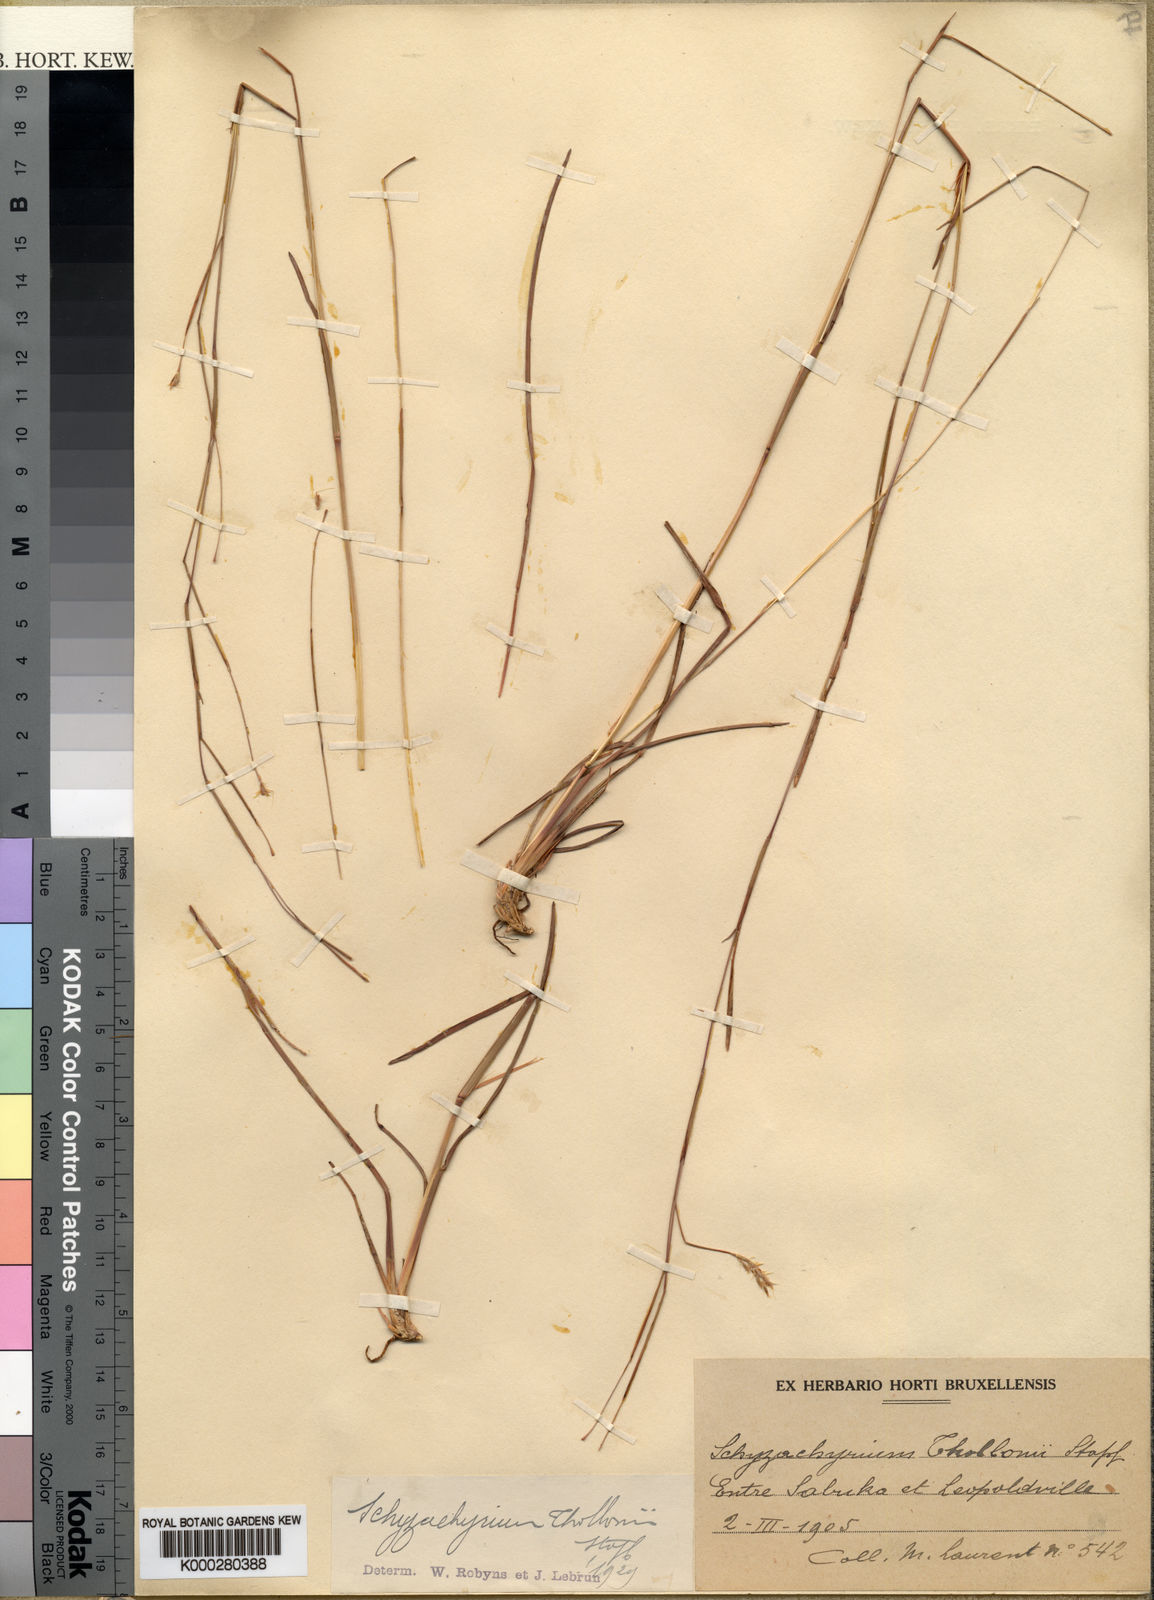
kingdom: Plantae
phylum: Tracheophyta
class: Liliopsida
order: Poales
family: Poaceae
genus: Schizachyrium
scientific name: Schizachyrium thollonii
